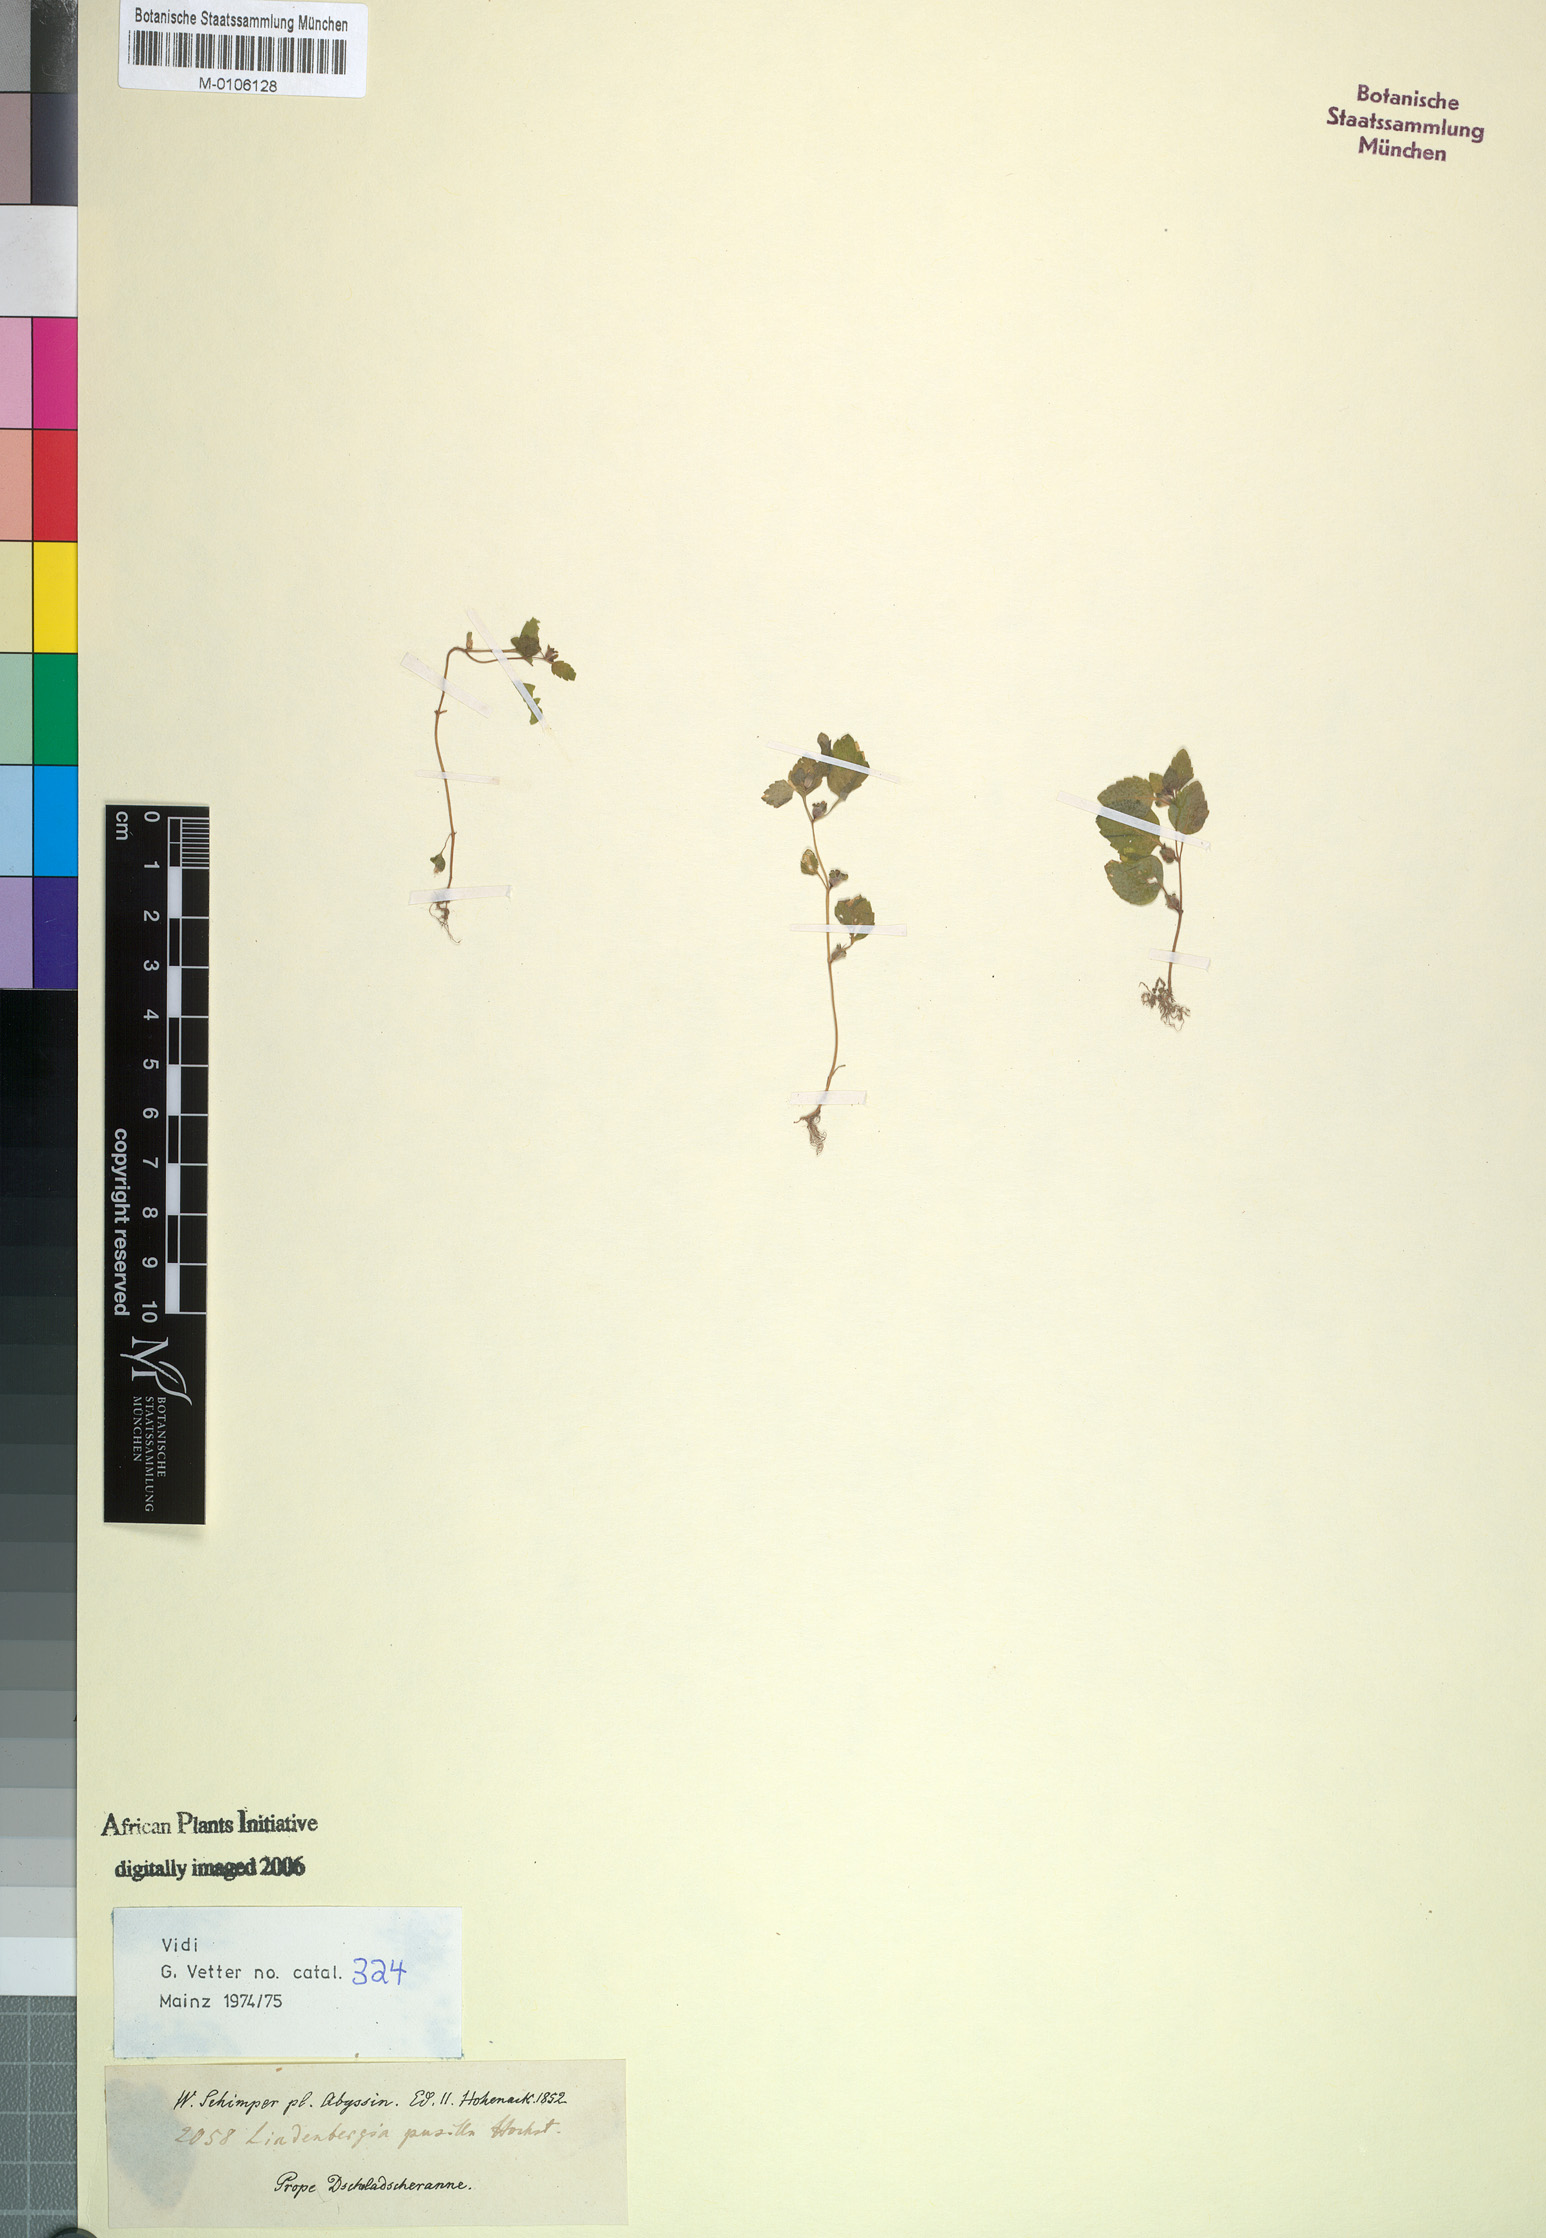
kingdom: Plantae
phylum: Tracheophyta
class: Magnoliopsida
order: Lamiales
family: Orobanchaceae
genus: Lindenbergia
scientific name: Lindenbergia muraria
